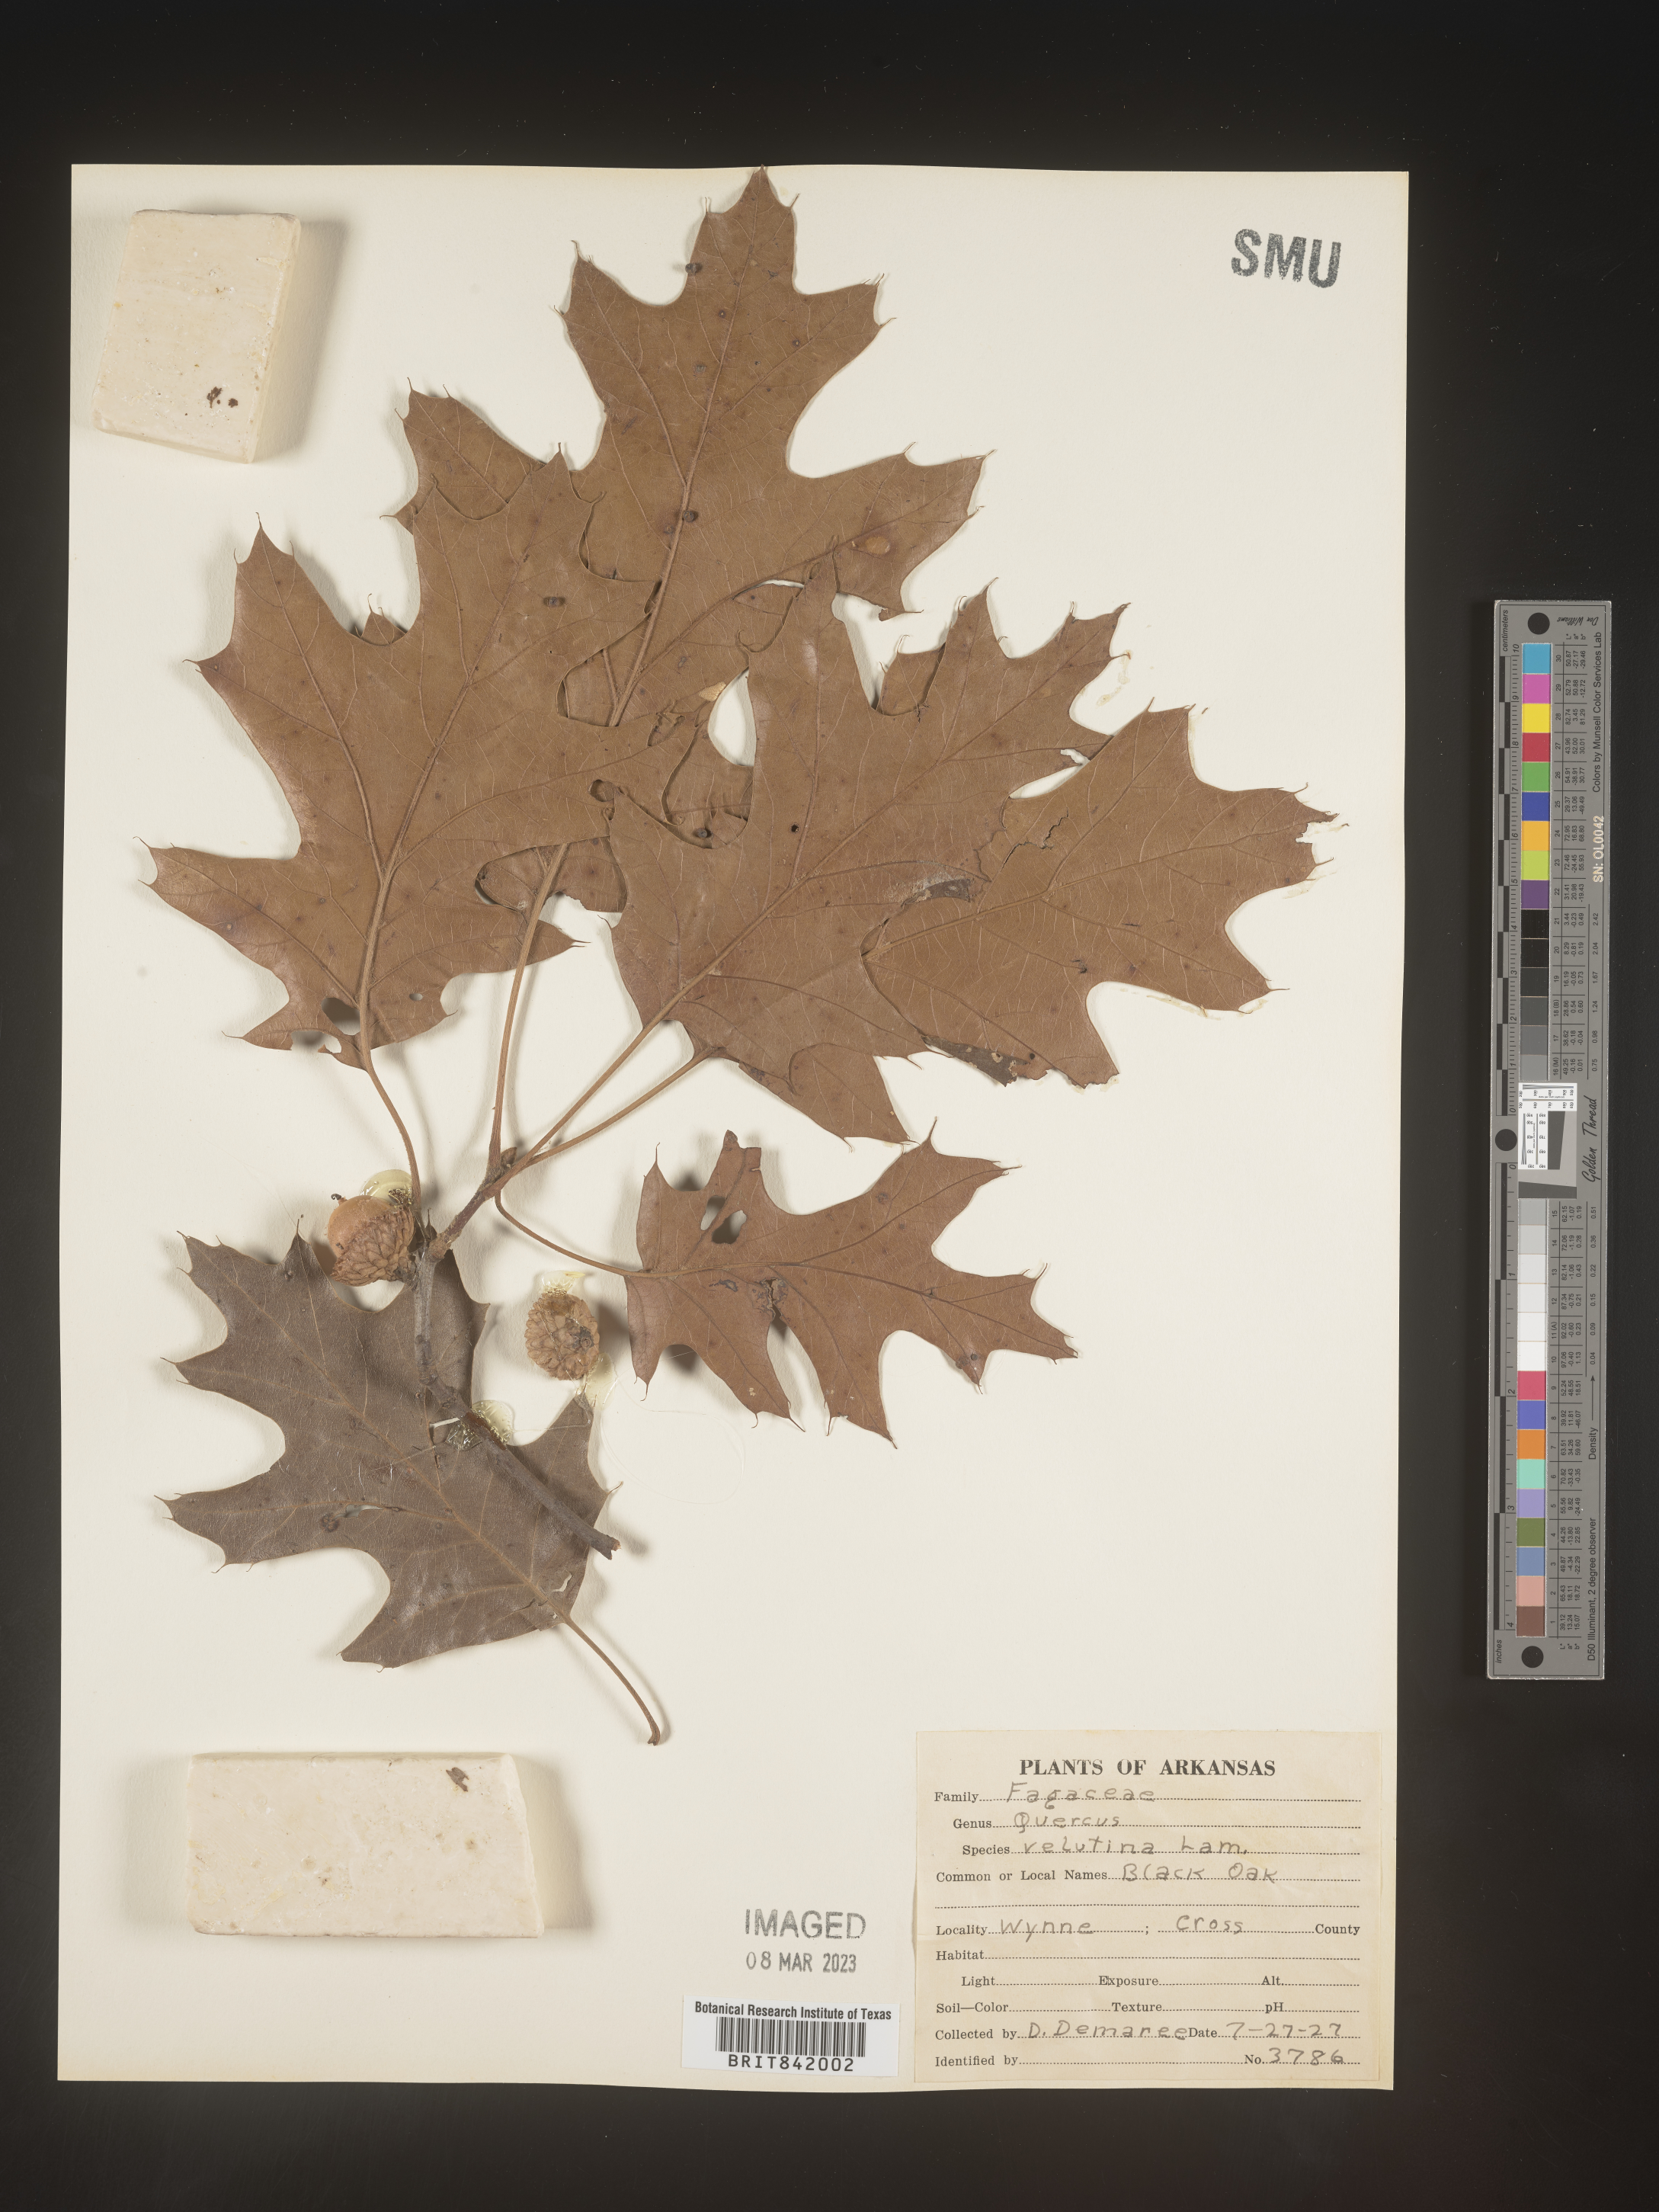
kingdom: Plantae
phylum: Tracheophyta
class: Magnoliopsida
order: Fagales
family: Fagaceae
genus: Quercus
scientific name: Quercus velutina
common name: Black oak
